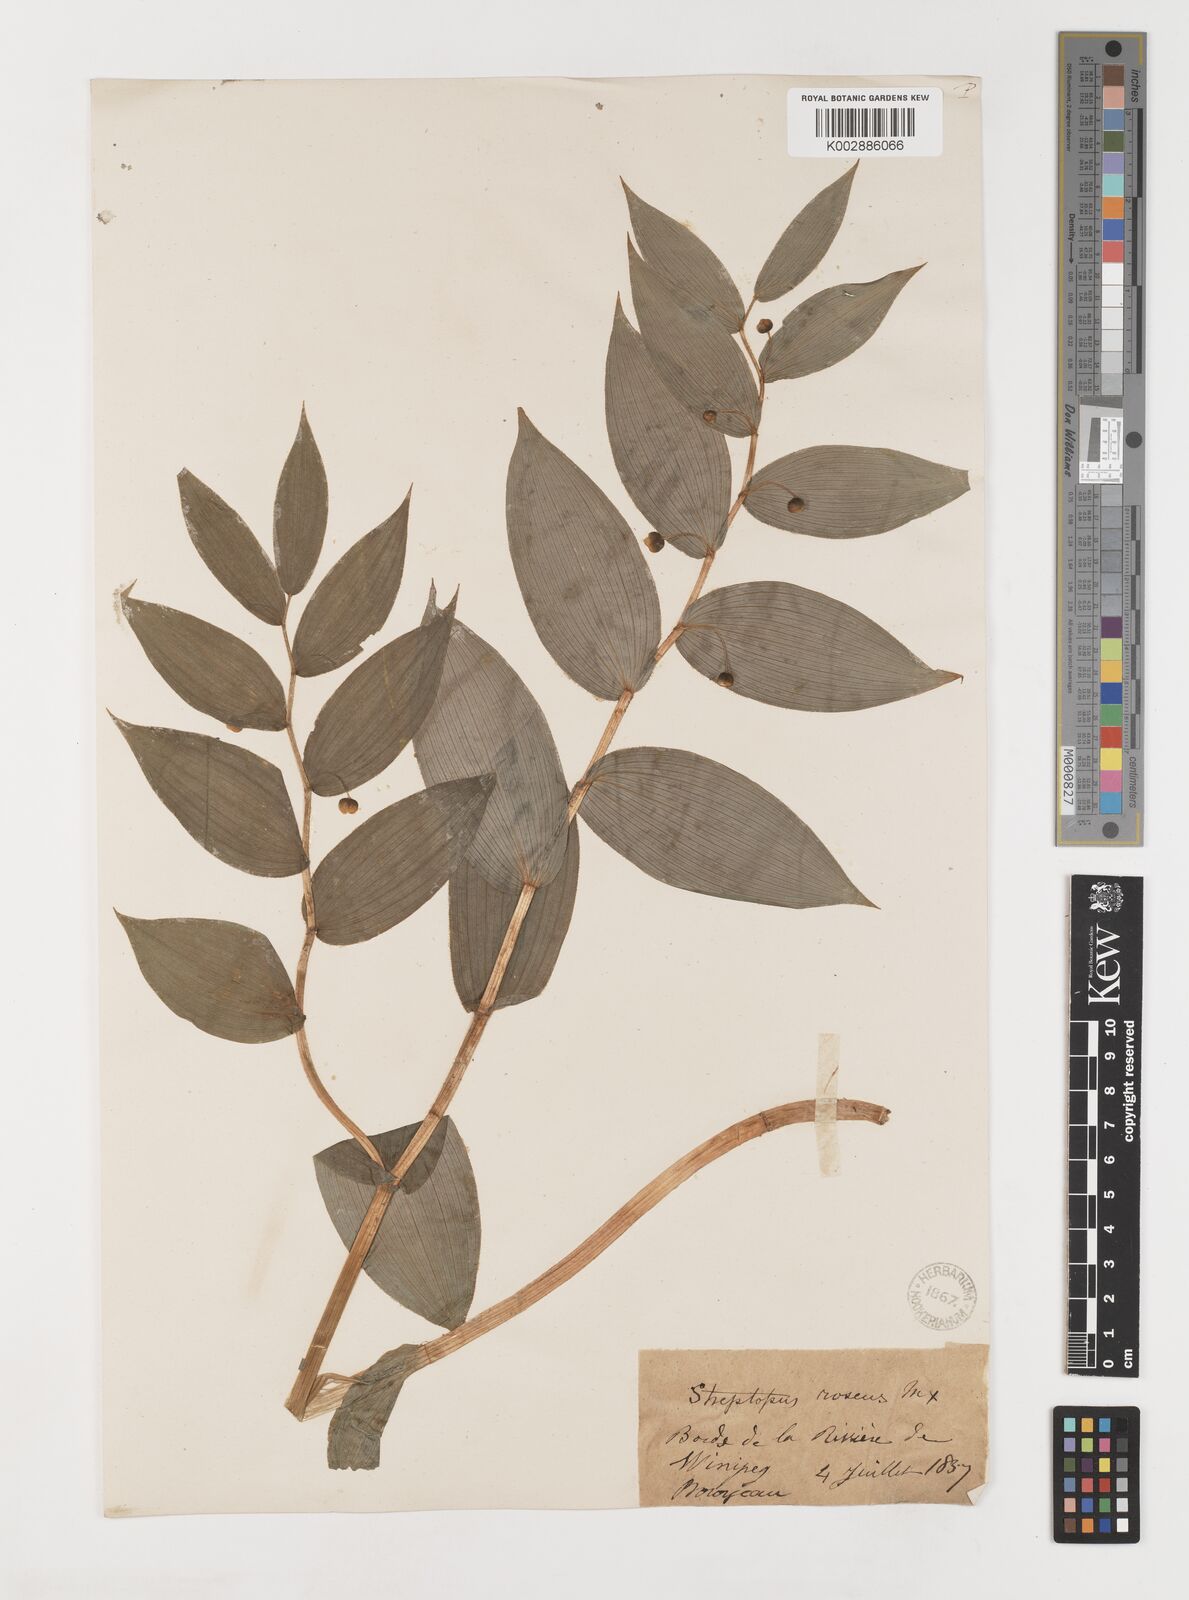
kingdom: Plantae
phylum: Tracheophyta
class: Liliopsida
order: Liliales
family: Liliaceae
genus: Streptopus
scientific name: Streptopus lanceolatus
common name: Rose mandarin
